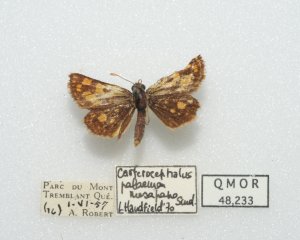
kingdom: Animalia
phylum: Arthropoda
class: Insecta
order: Lepidoptera
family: Hesperiidae
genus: Carterocephalus
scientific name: Carterocephalus palaemon
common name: Chequered Skipper
